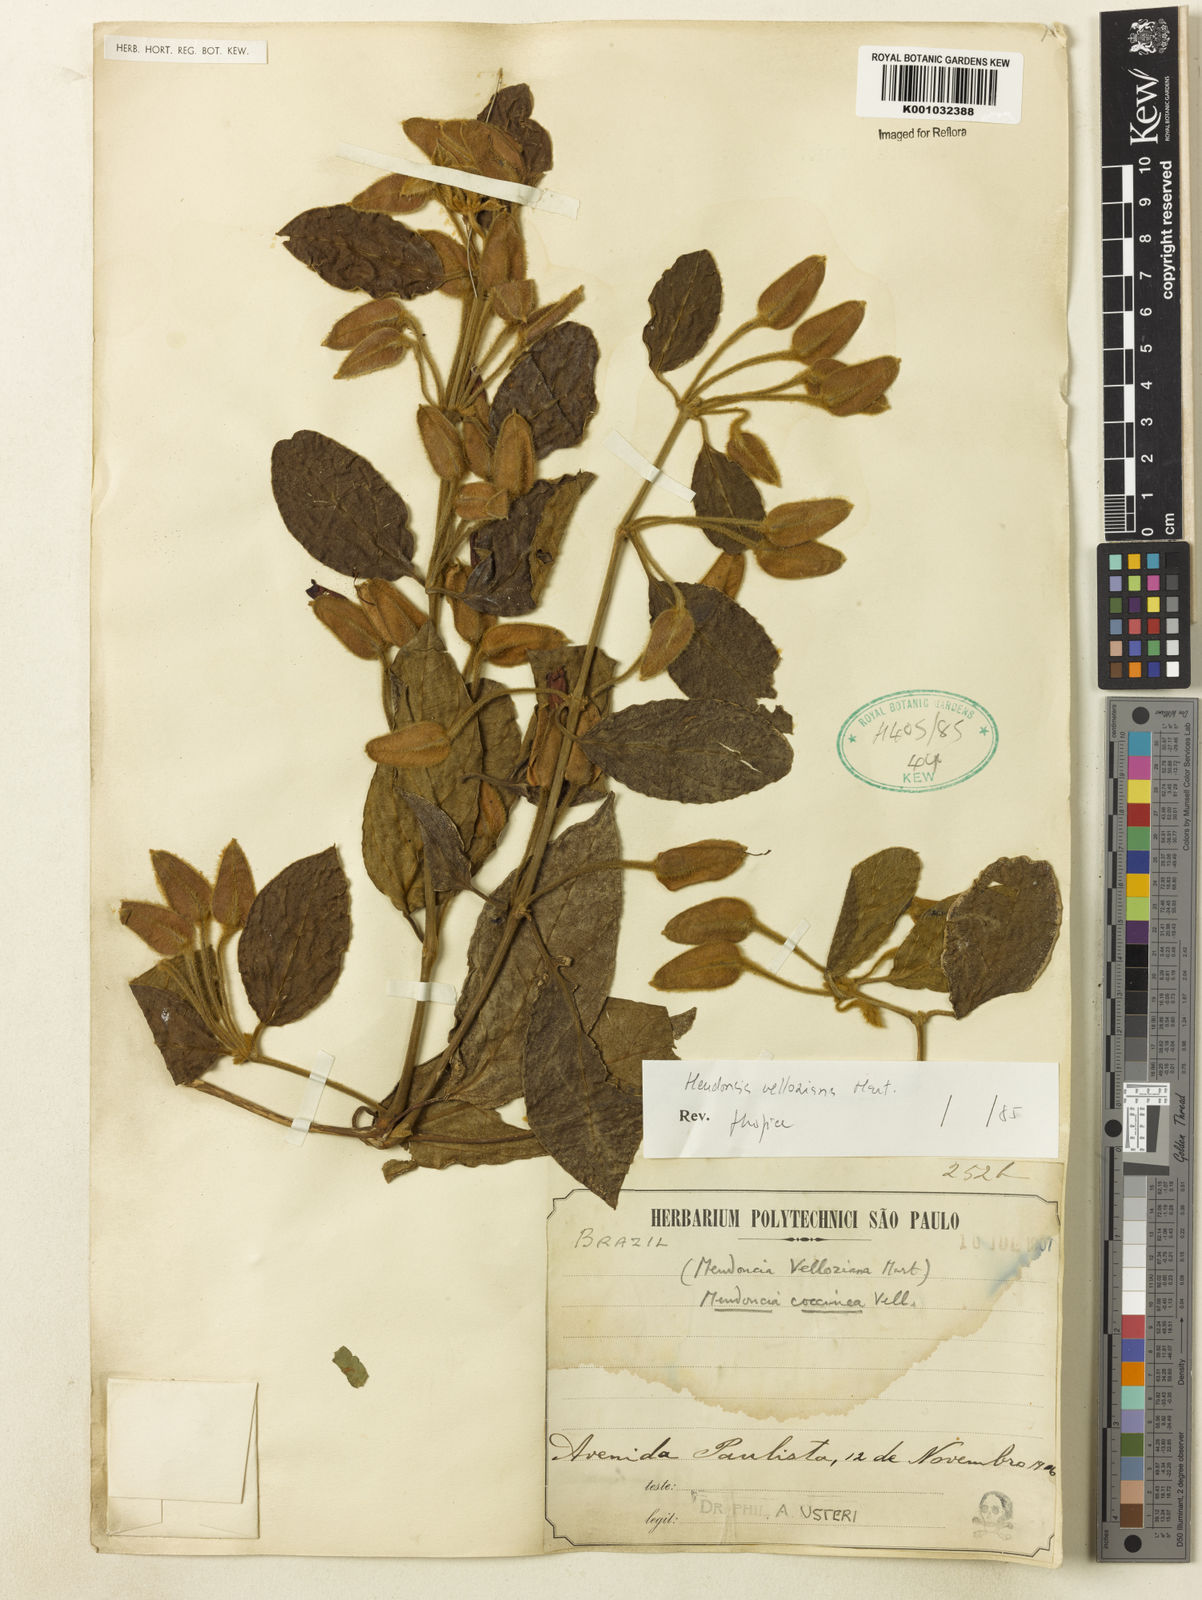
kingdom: Plantae
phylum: Tracheophyta
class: Magnoliopsida
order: Lamiales
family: Acanthaceae
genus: Mendoncia
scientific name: Mendoncia velloziana
